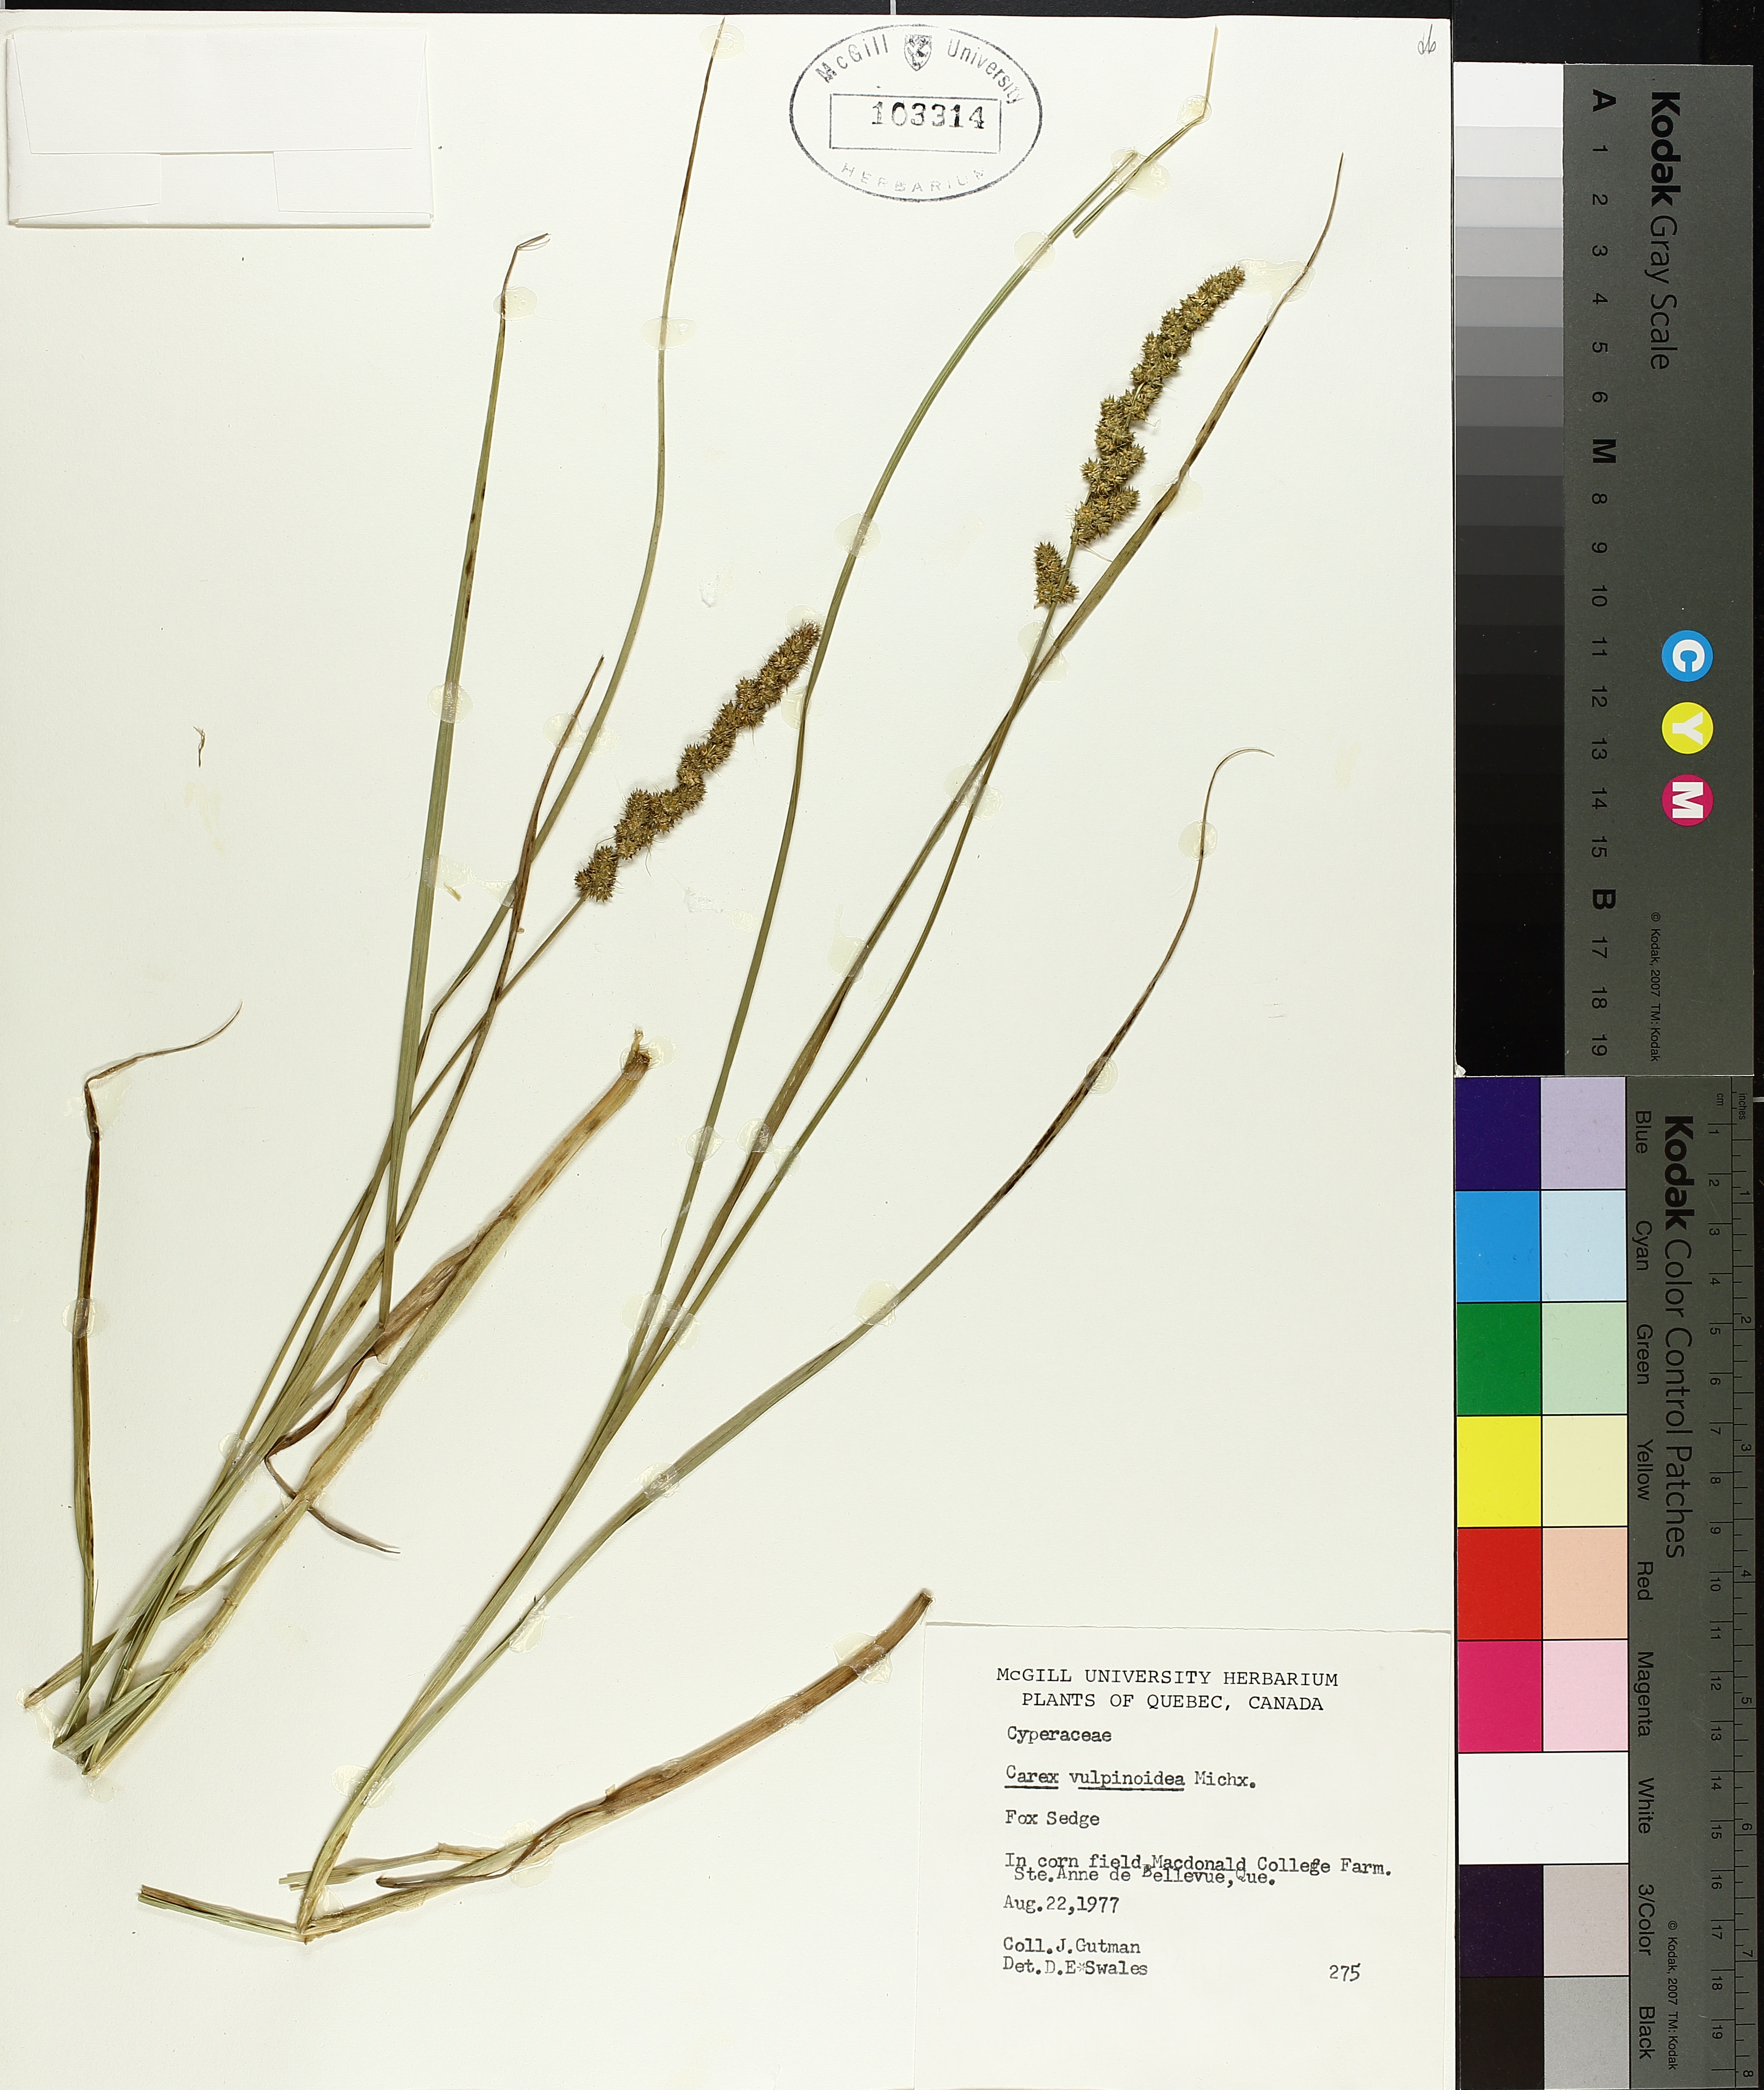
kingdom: Plantae
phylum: Tracheophyta
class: Liliopsida
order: Poales
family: Cyperaceae
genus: Carex
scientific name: Carex vulpinoidea
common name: American fox-sedge
